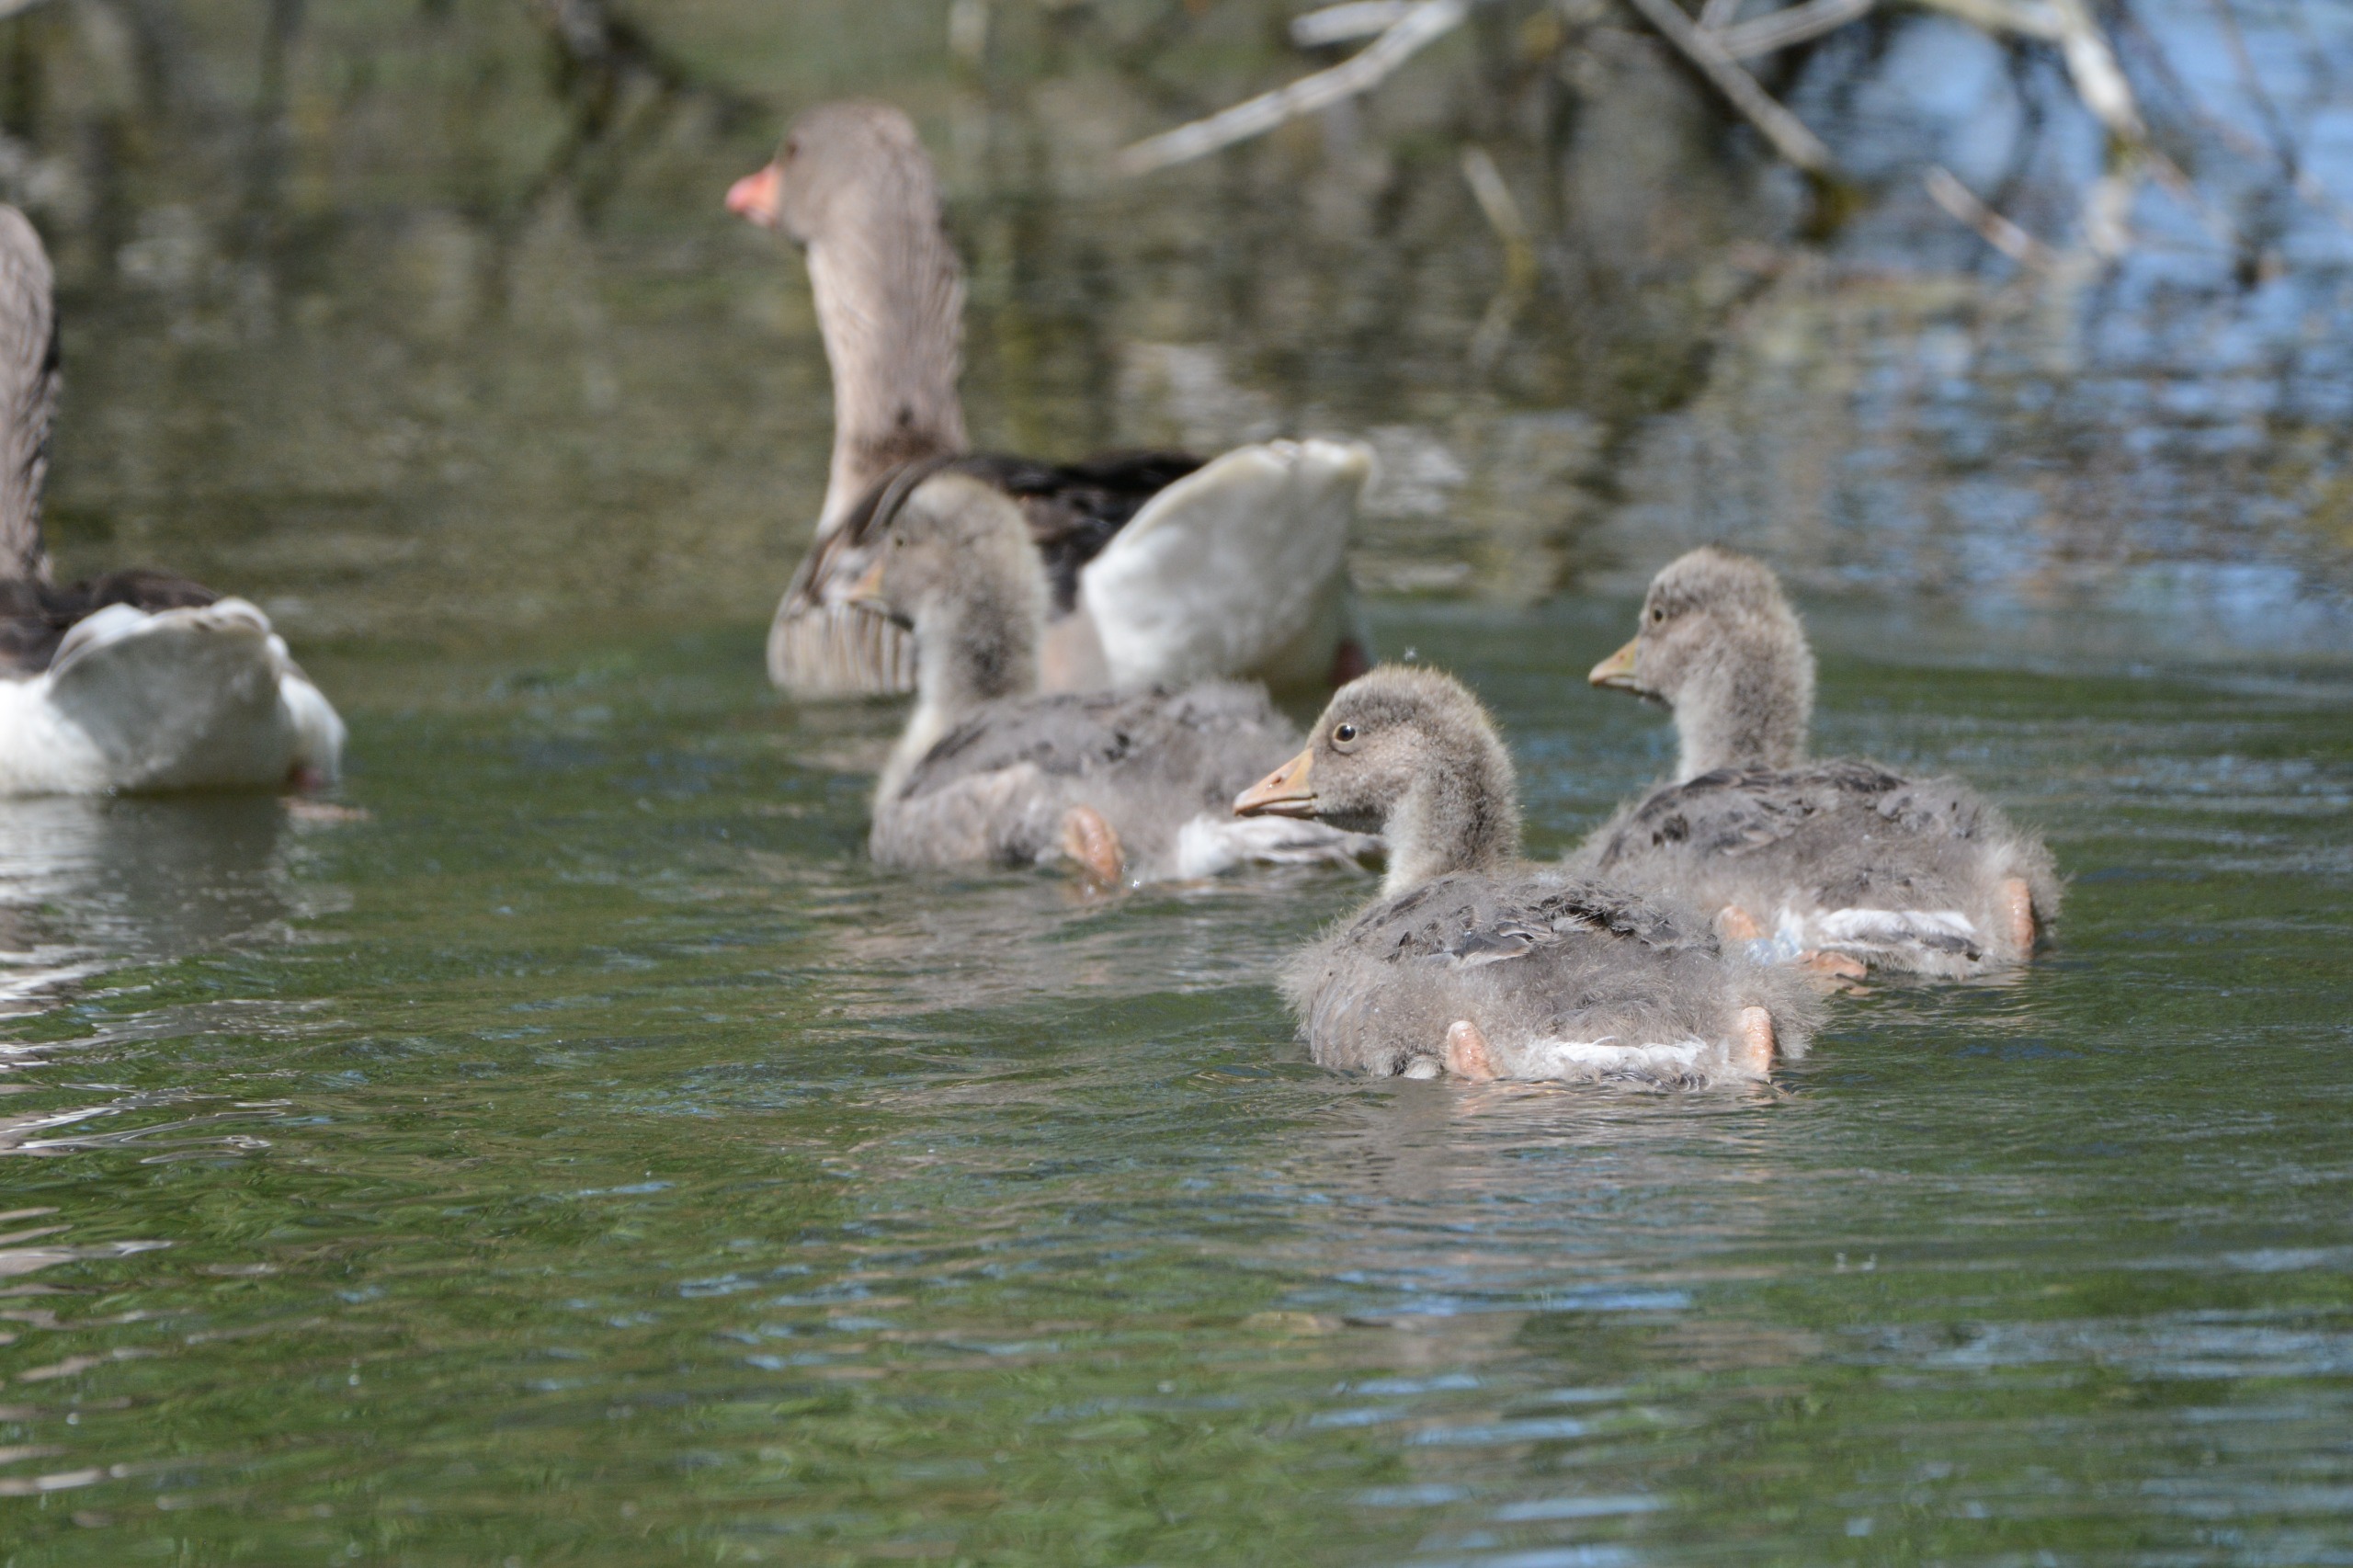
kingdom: Animalia
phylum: Chordata
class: Aves
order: Anseriformes
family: Anatidae
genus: Anser
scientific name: Anser anser
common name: Grågås
